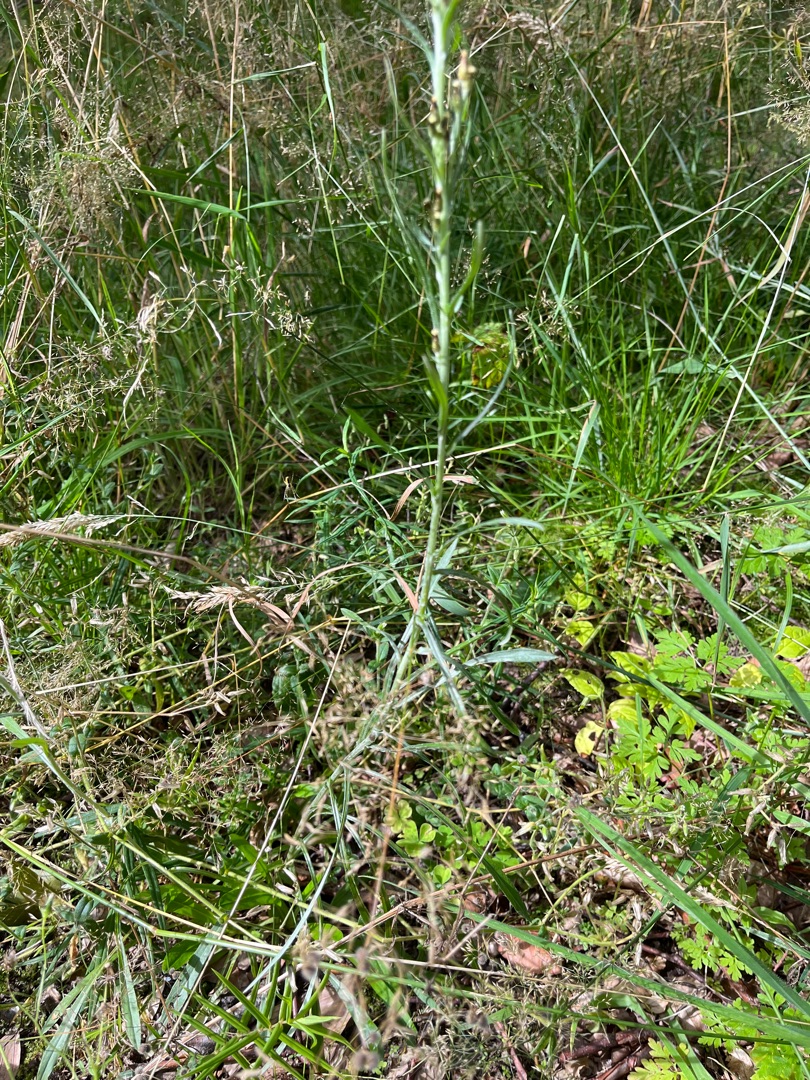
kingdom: Plantae
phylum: Tracheophyta
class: Magnoliopsida
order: Asterales
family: Asteraceae
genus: Omalotheca
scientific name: Omalotheca sylvatica
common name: Rank evighedsblomst
